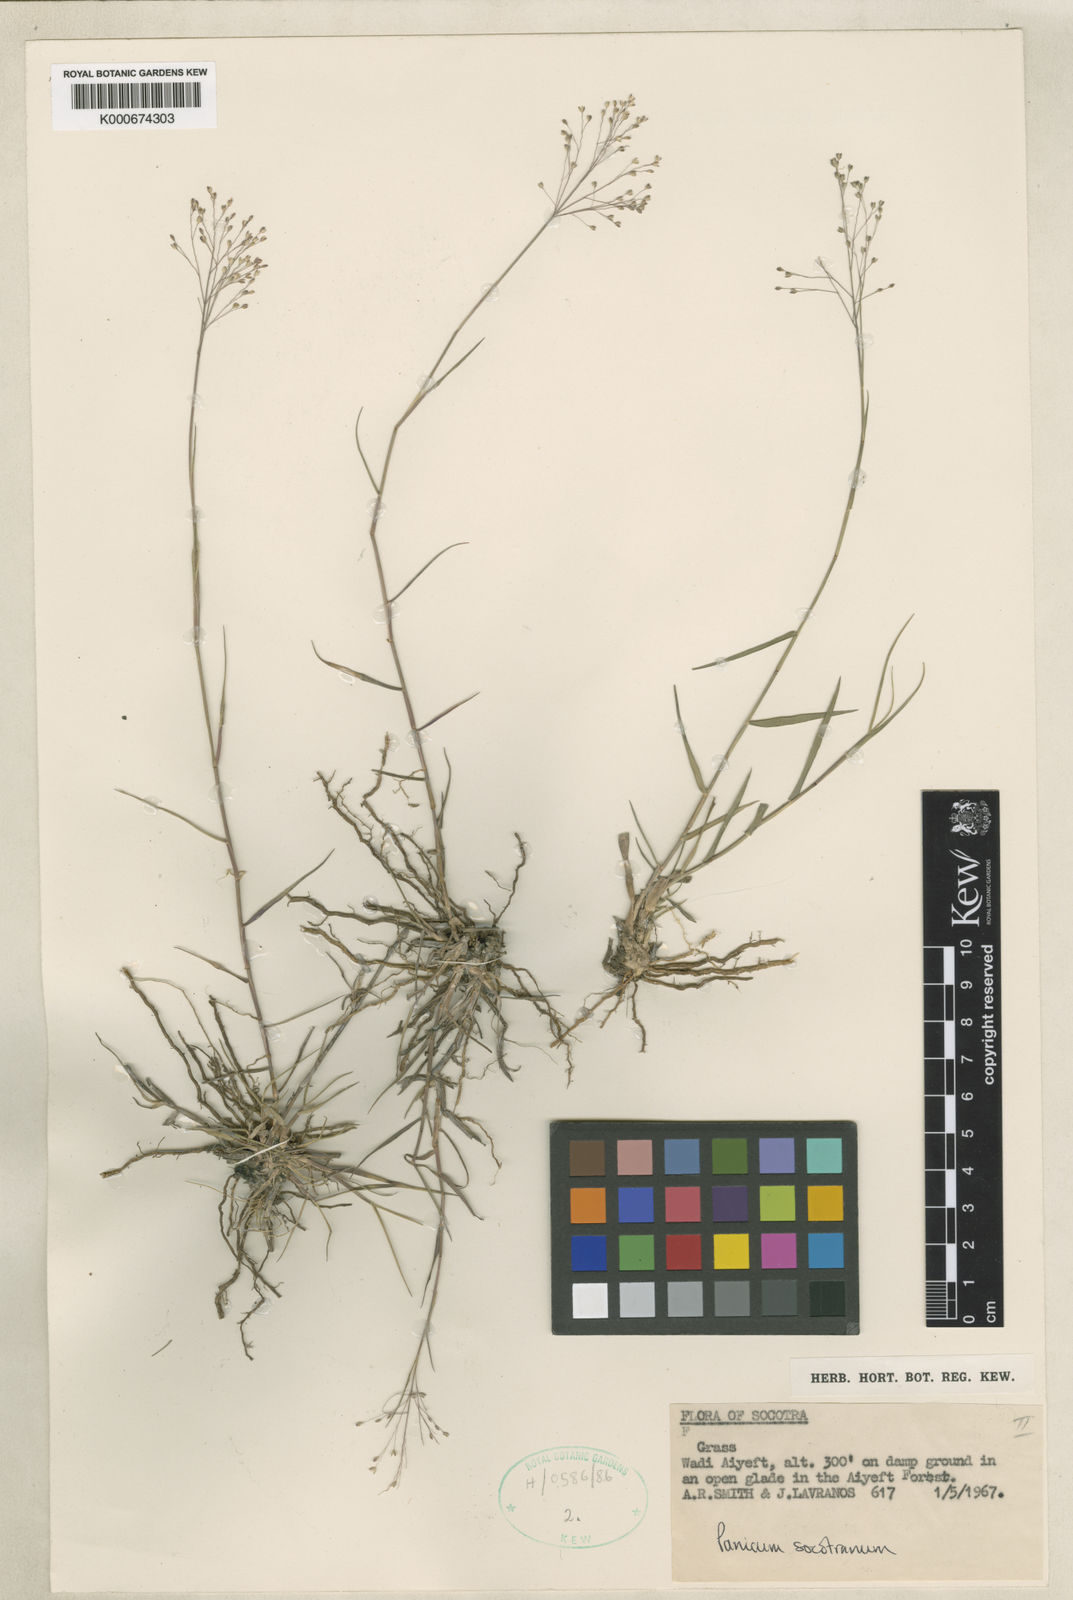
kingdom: Plantae
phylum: Tracheophyta
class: Liliopsida
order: Poales
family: Poaceae
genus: Panicum
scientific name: Panicum socotranum
